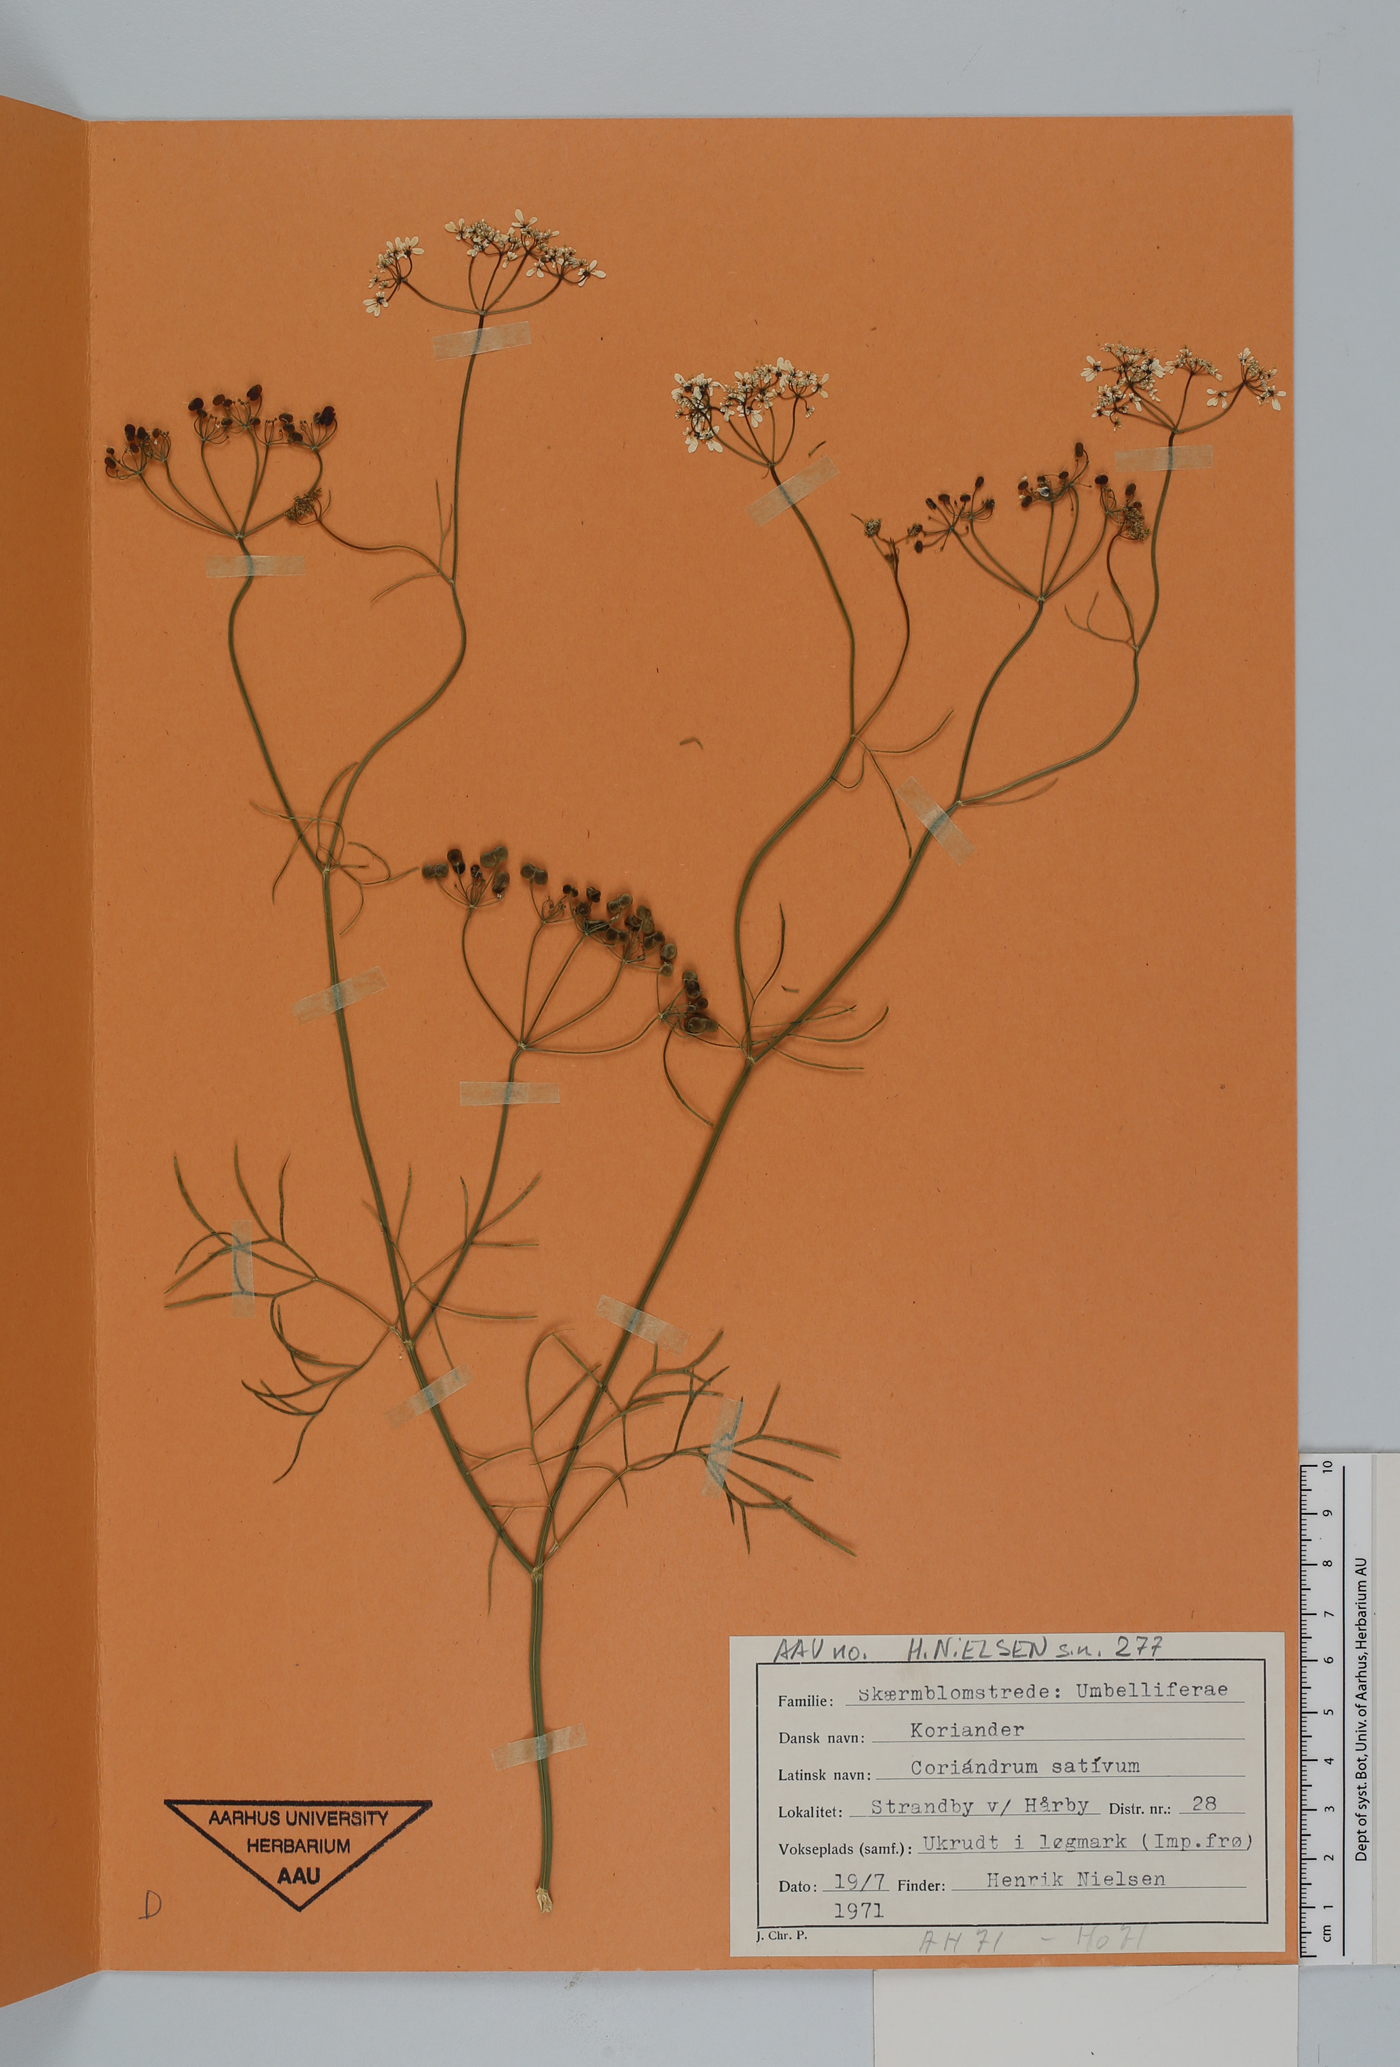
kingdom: Plantae
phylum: Tracheophyta
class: Magnoliopsida
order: Apiales
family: Apiaceae
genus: Coriandrum
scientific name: Coriandrum sativum
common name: Coriander
